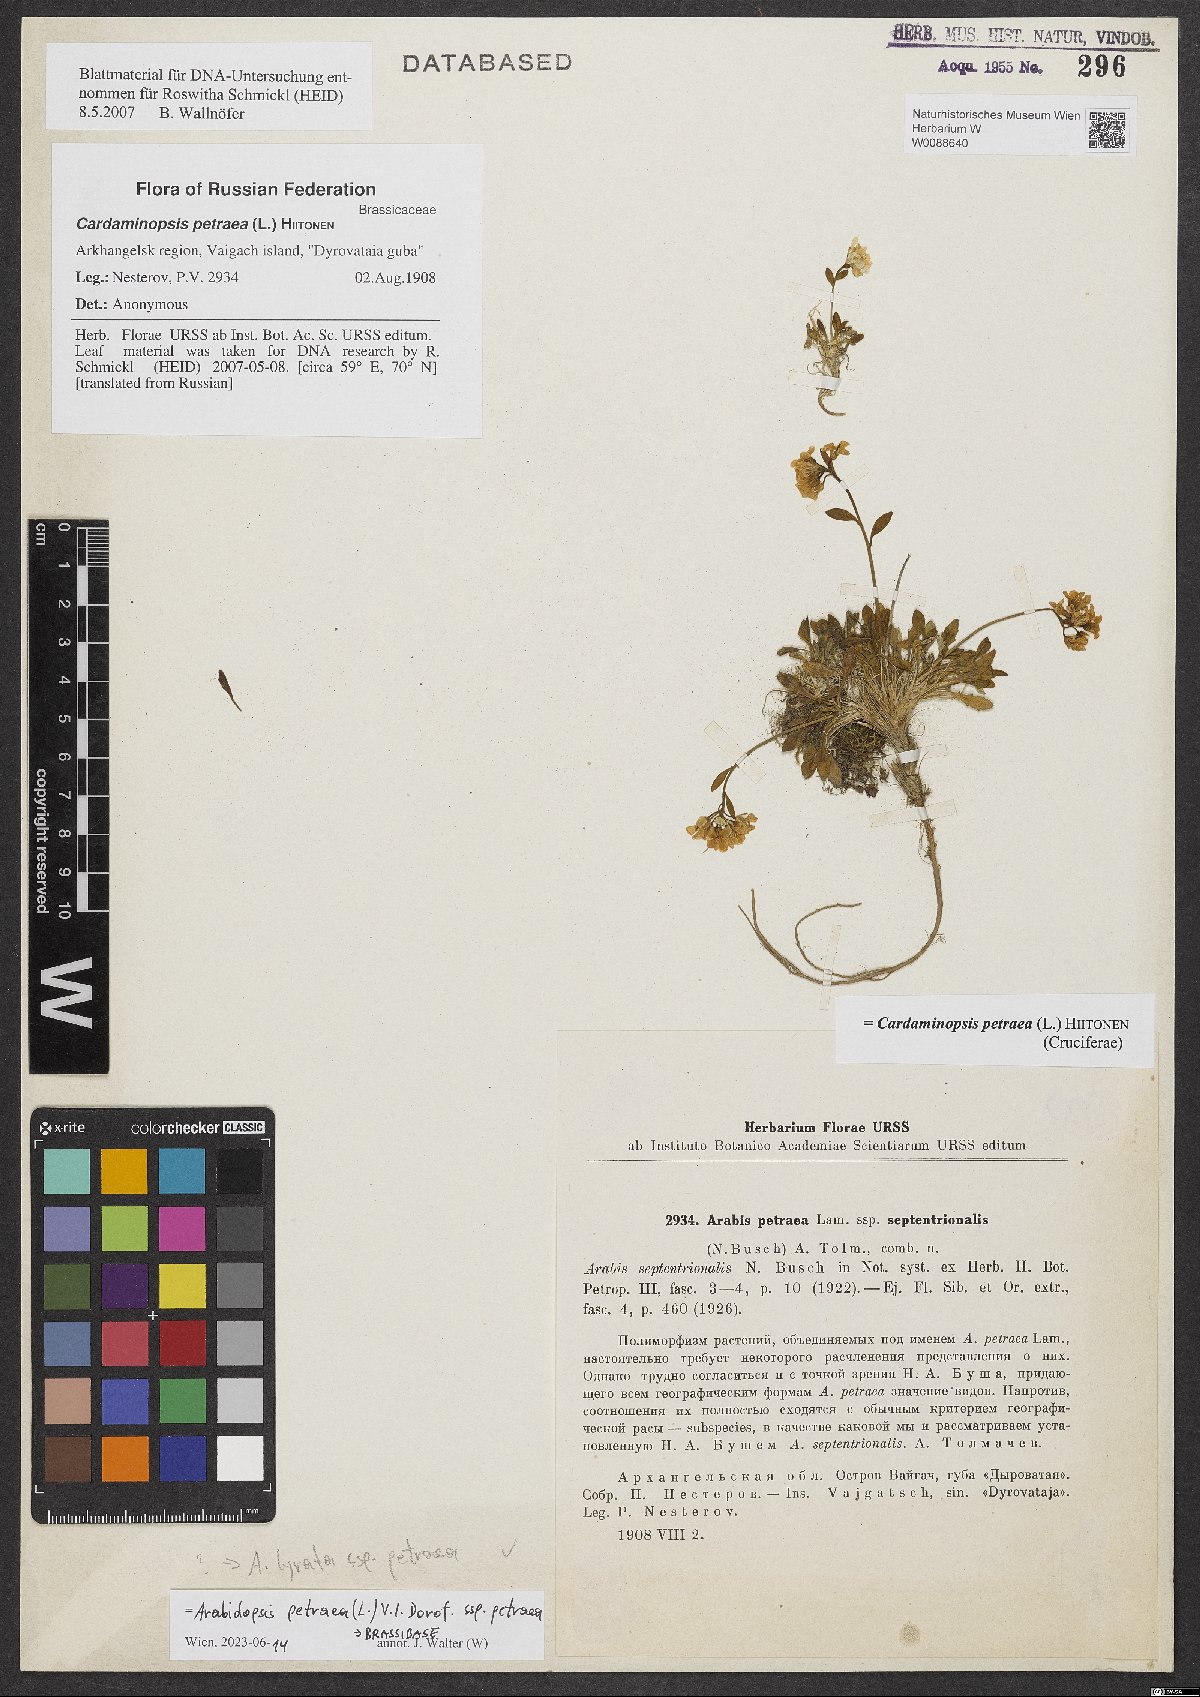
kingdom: Plantae
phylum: Tracheophyta
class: Magnoliopsida
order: Brassicales
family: Brassicaceae
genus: Arabidopsis
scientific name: Arabidopsis lyrata
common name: Lyrate rockcress
